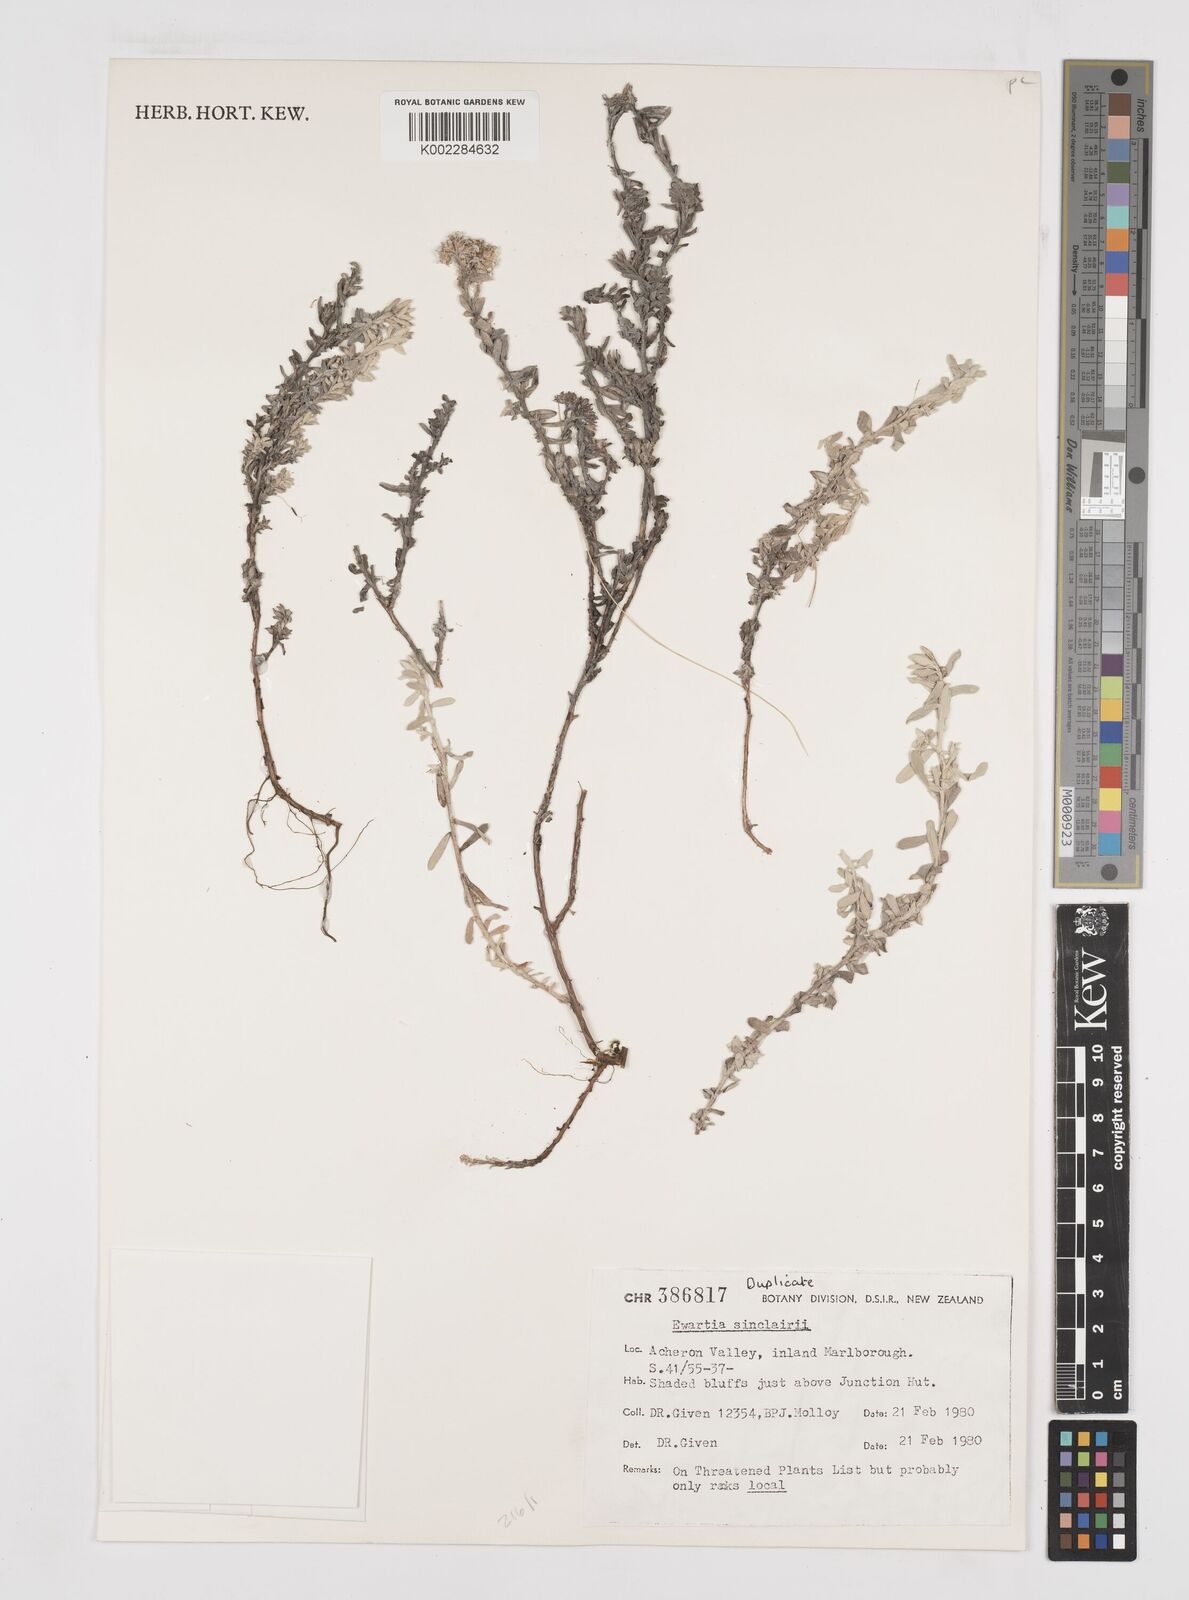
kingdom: Plantae
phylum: Tracheophyta
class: Magnoliopsida
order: Asterales
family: Asteraceae
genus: Ewartiothamnus
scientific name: Ewartiothamnus sinclairii
